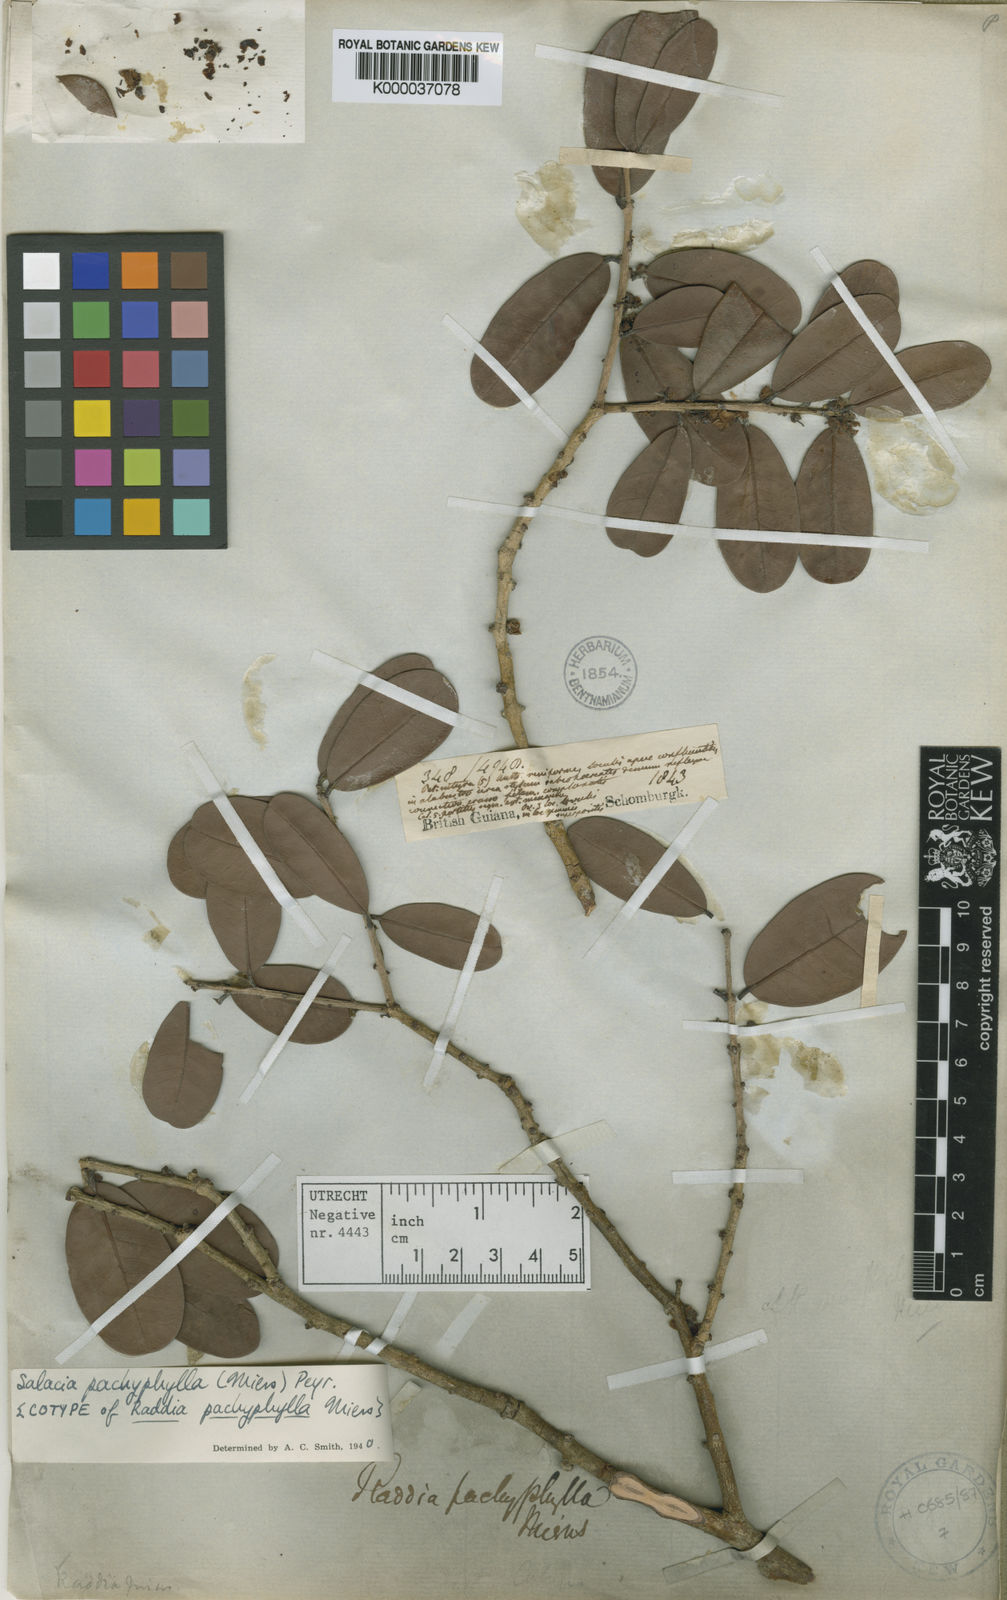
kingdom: Plantae
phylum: Tracheophyta
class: Magnoliopsida
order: Celastrales
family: Celastraceae
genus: Salacia
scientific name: Salacia elliptica
